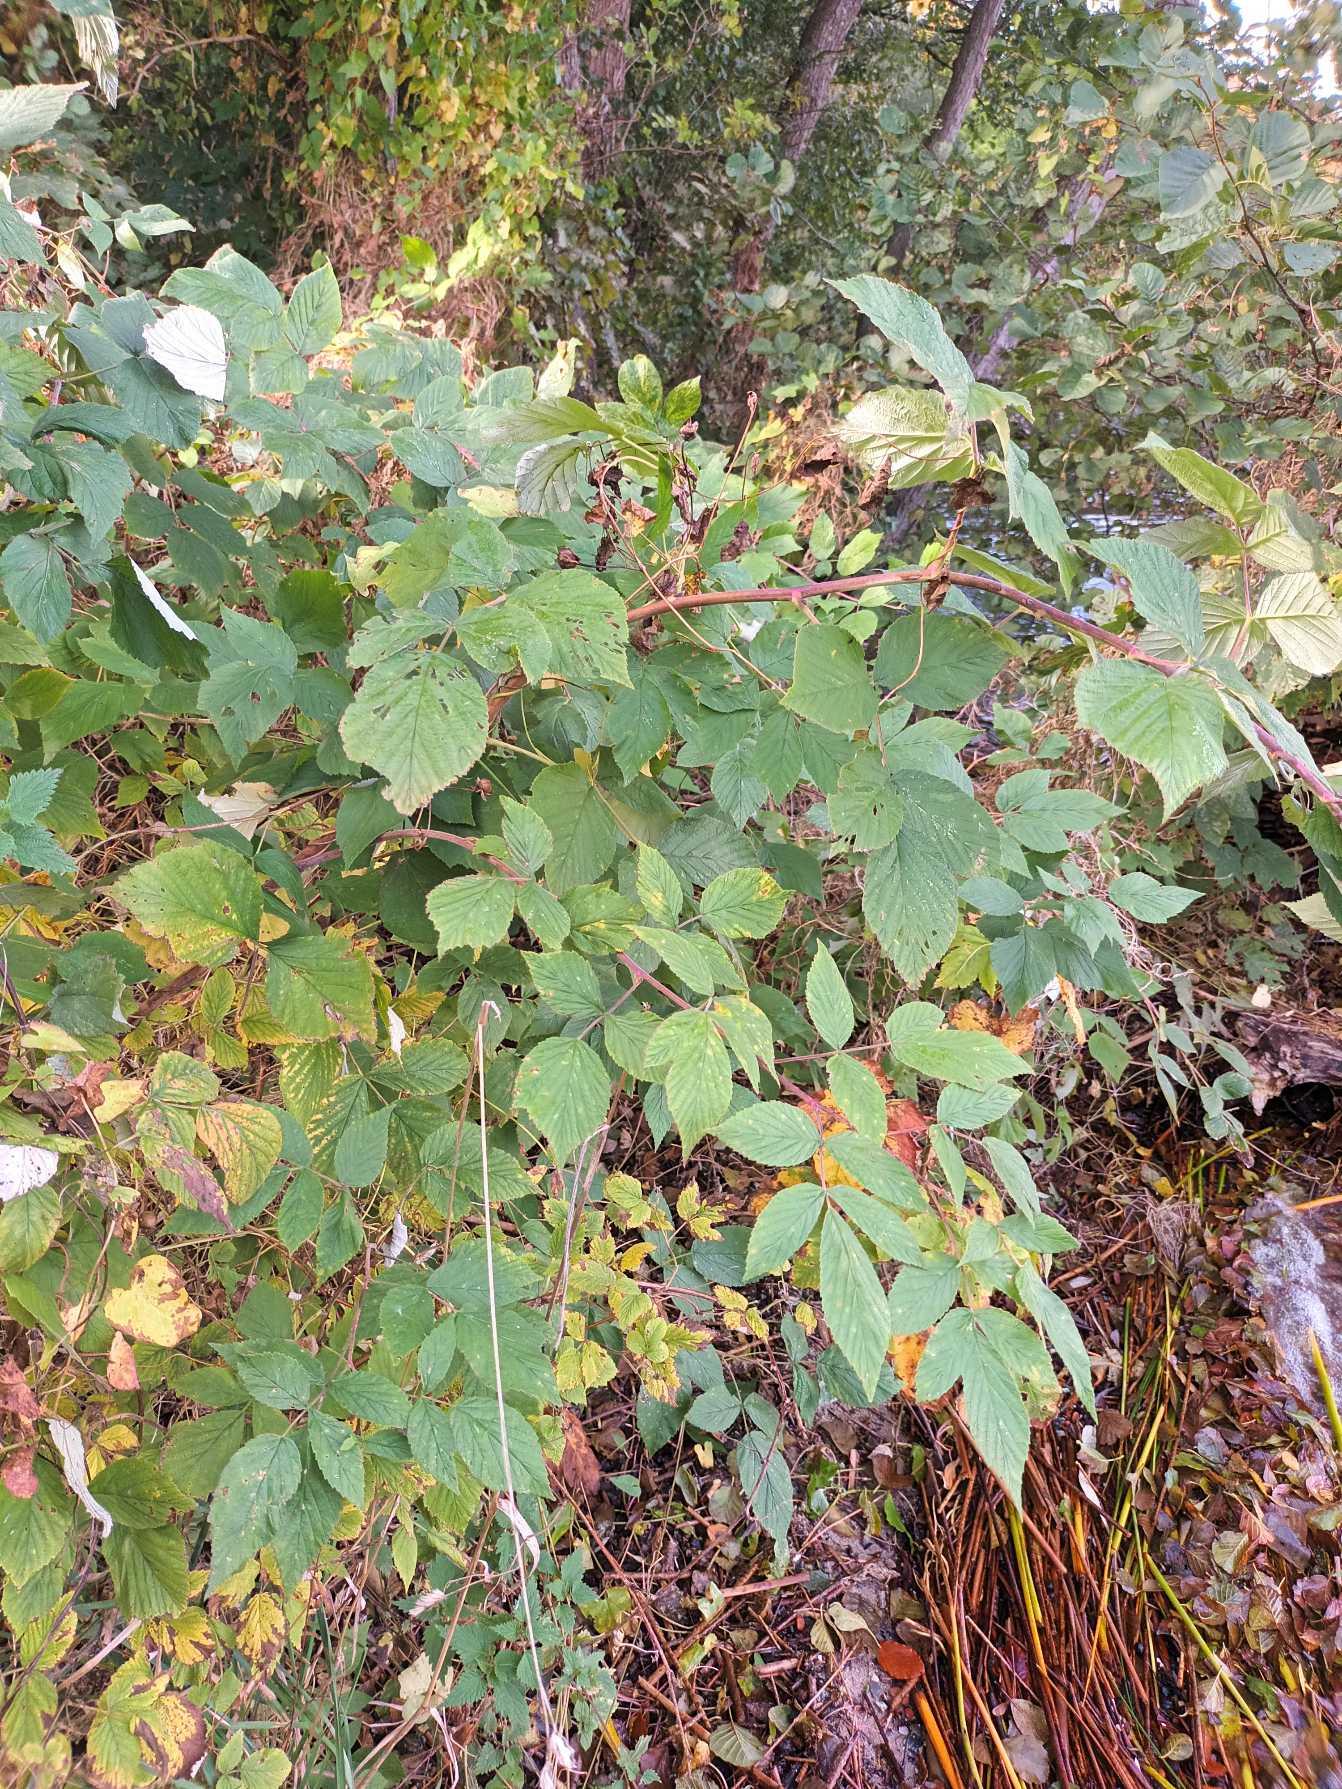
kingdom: Plantae
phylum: Tracheophyta
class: Magnoliopsida
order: Rosales
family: Rosaceae
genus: Rubus
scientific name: Rubus idaeus
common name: Hindbær
